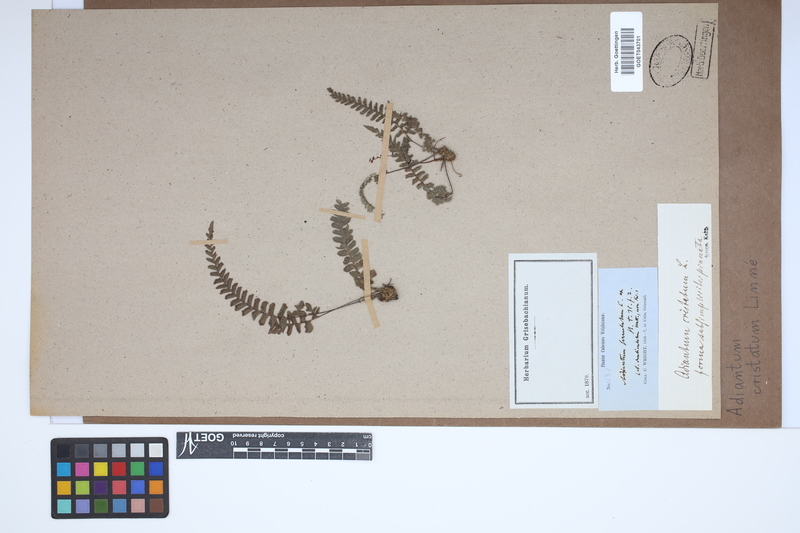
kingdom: Plantae
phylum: Tracheophyta
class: Polypodiopsida
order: Polypodiales
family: Pteridaceae
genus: Adiantum
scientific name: Adiantum pyramidale
